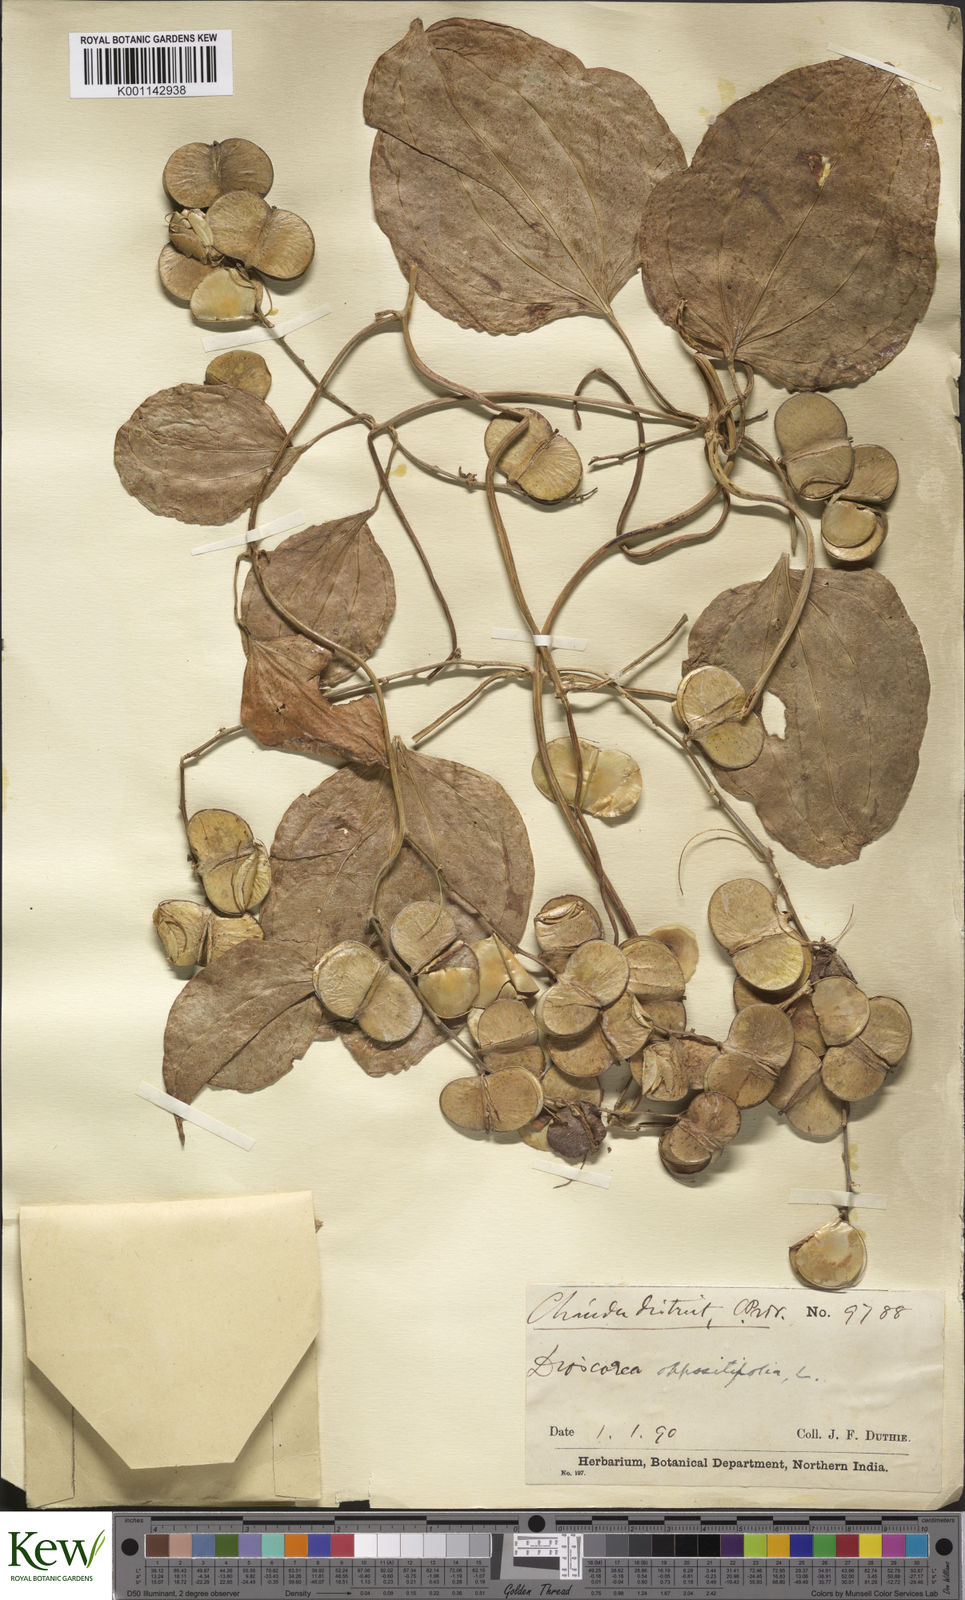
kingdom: Plantae
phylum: Tracheophyta
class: Liliopsida
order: Dioscoreales
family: Dioscoreaceae
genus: Dioscorea
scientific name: Dioscorea oppositifolia
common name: Chinese yam
